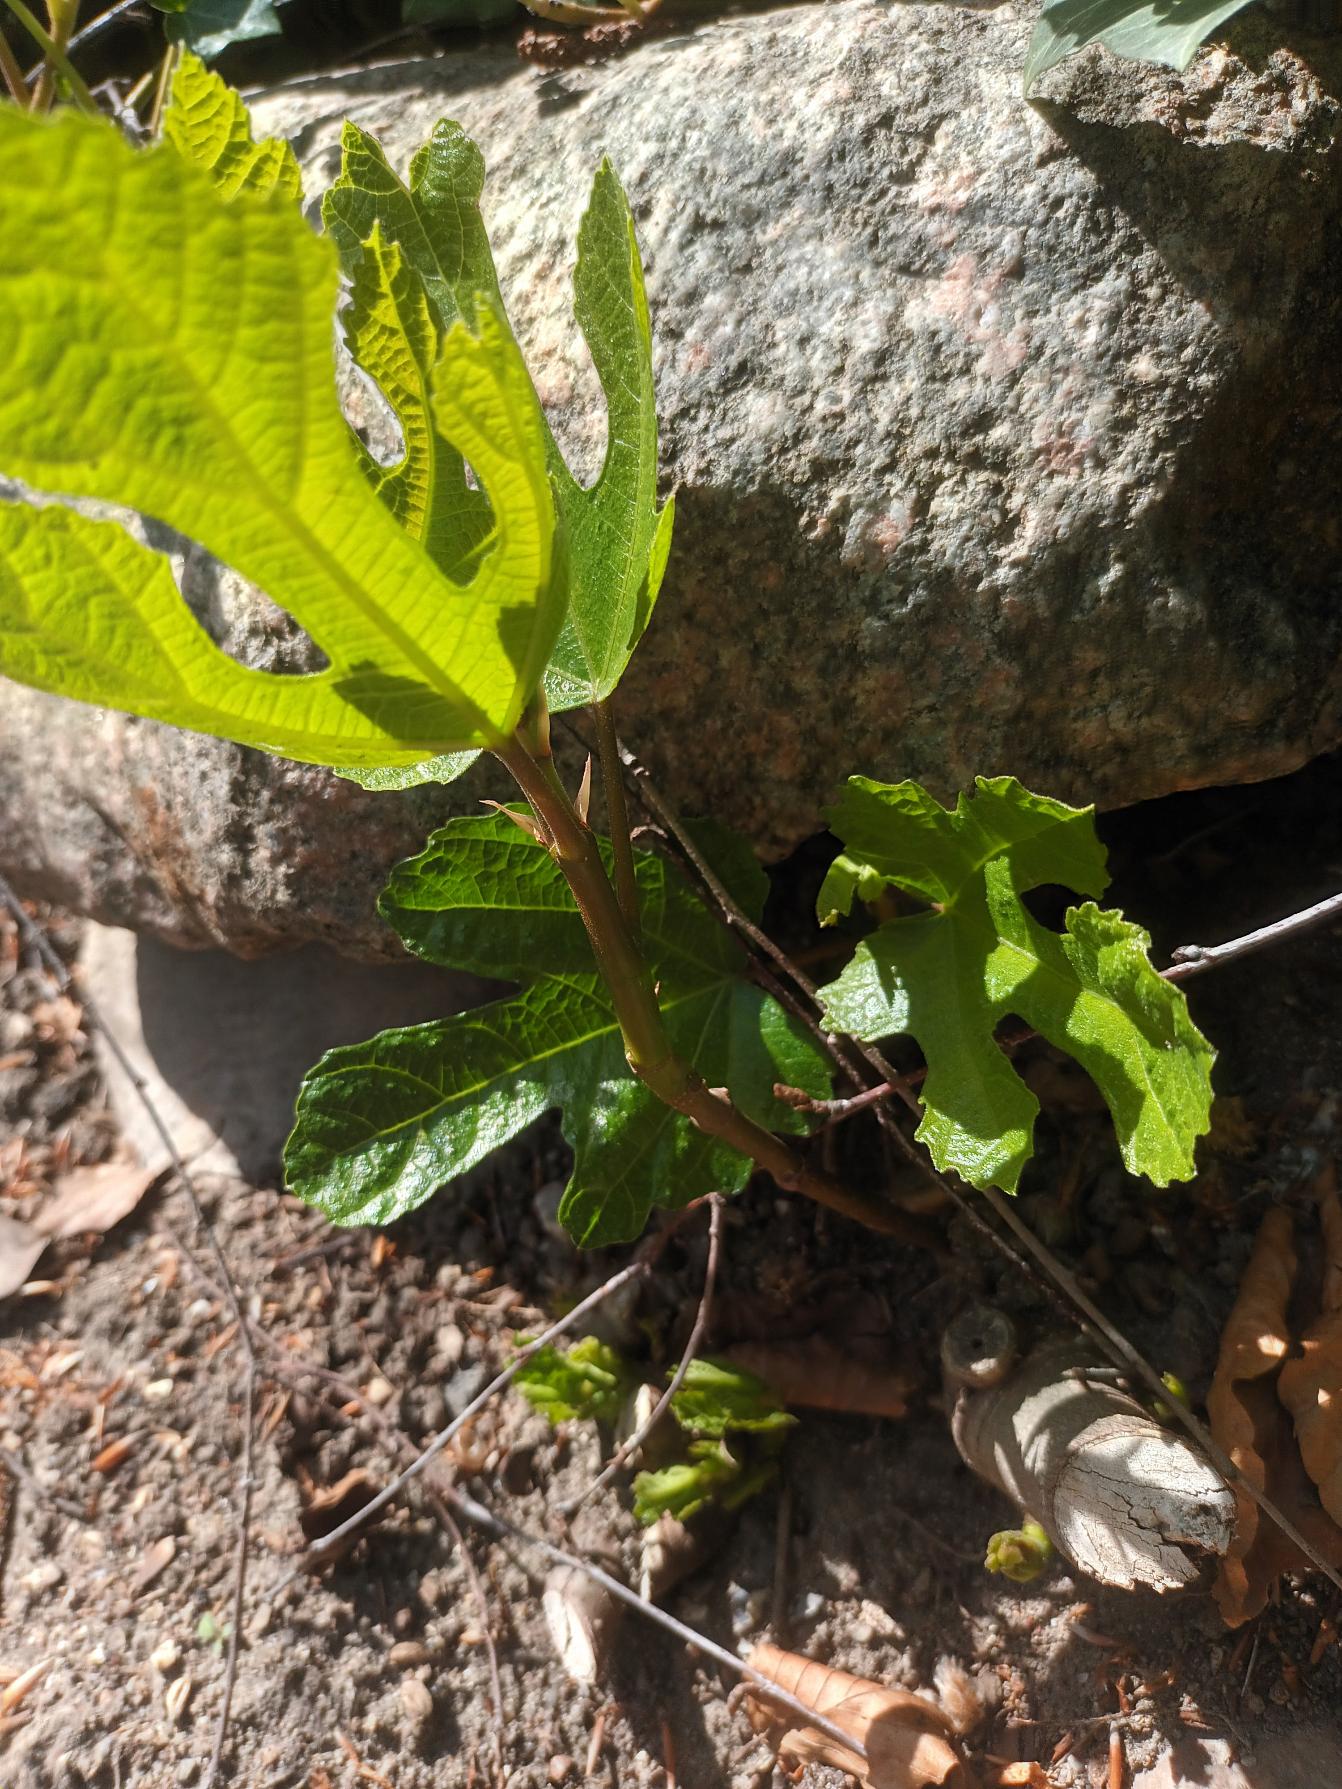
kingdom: Plantae
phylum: Tracheophyta
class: Magnoliopsida
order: Rosales
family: Moraceae
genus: Ficus
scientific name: Ficus carica
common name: Figen
